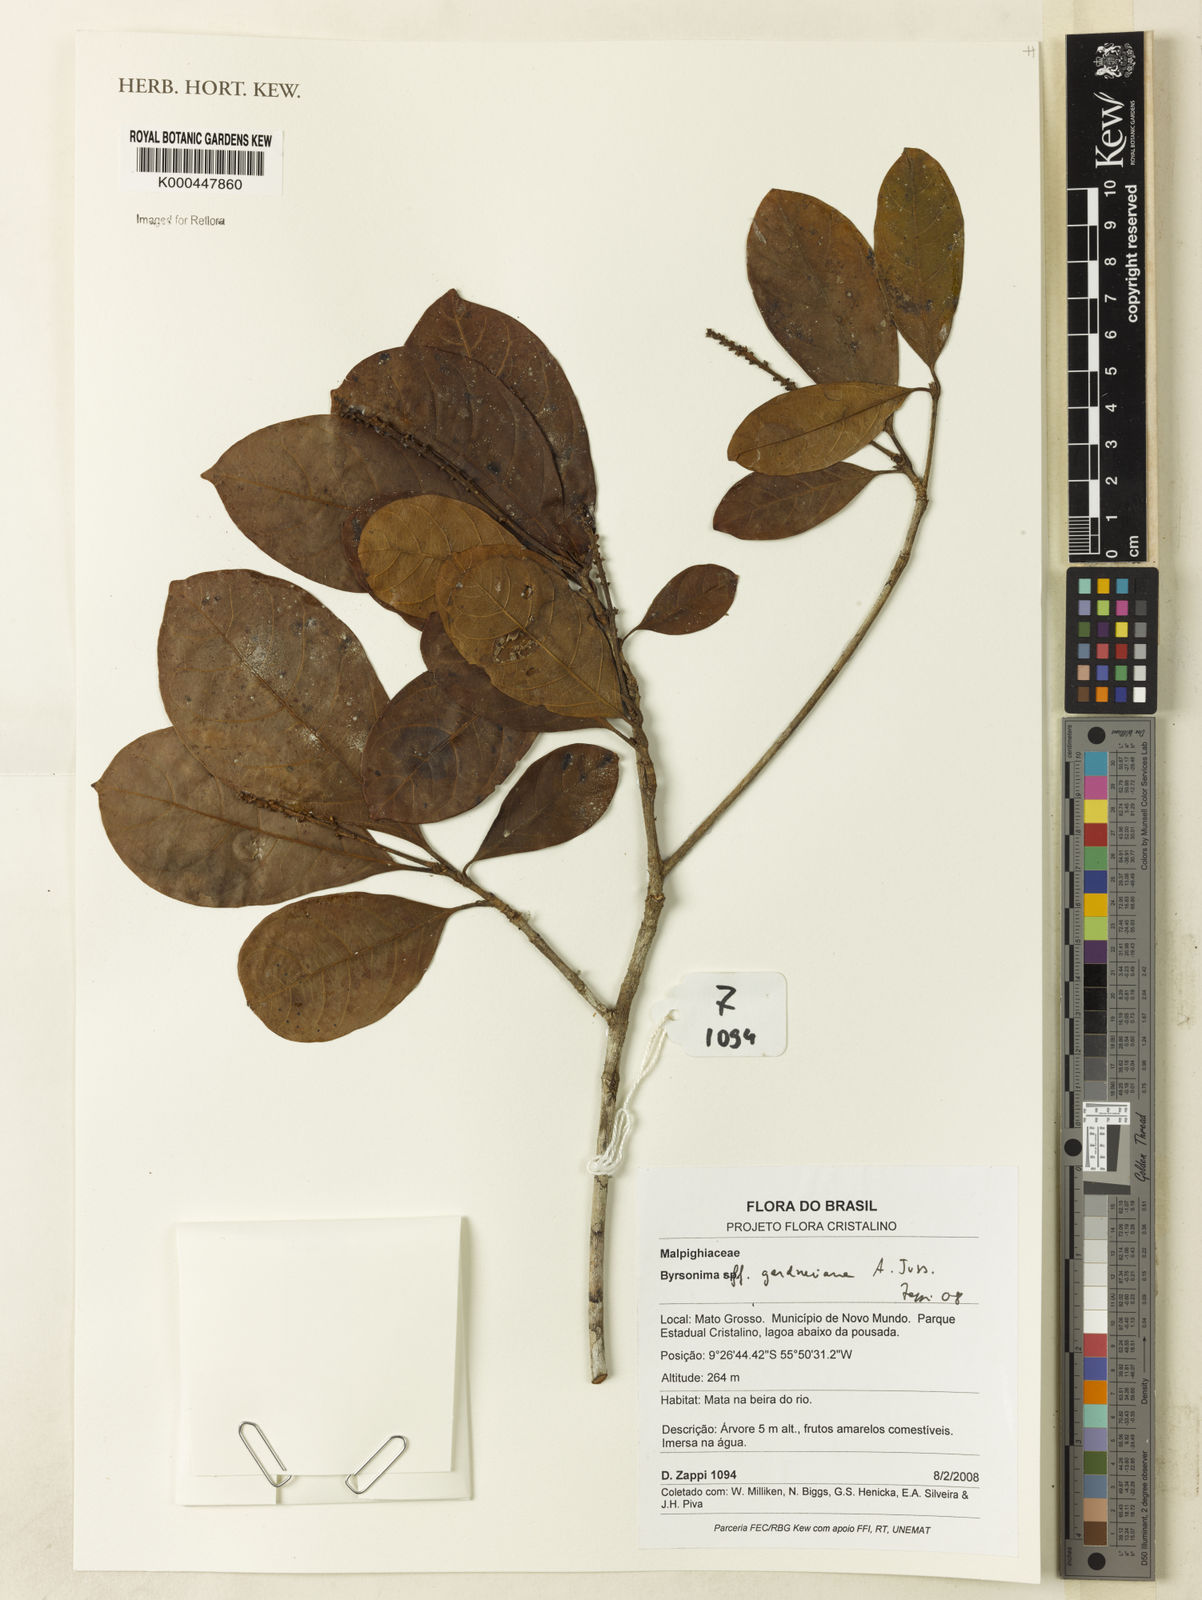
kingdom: Plantae
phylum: Tracheophyta
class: Magnoliopsida
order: Malpighiales
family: Malpighiaceae
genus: Byrsonima
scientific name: Byrsonima gardneriana
